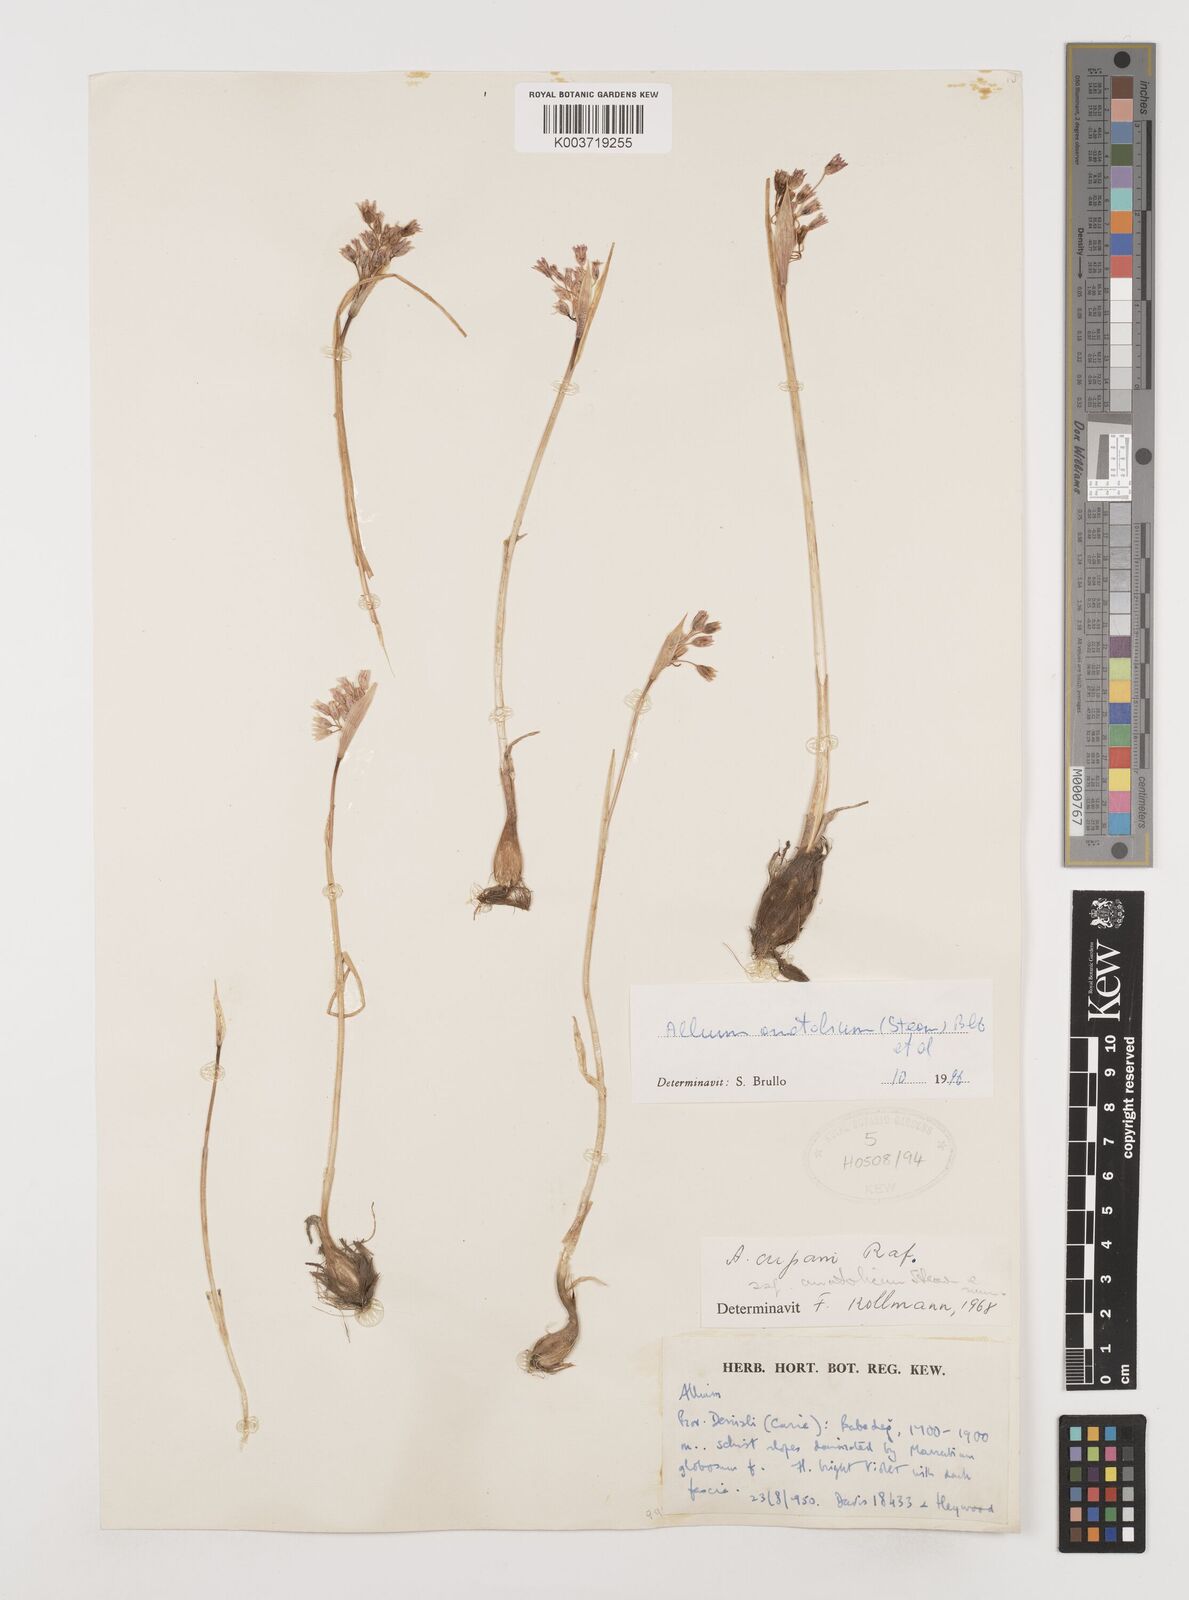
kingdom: Plantae
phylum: Tracheophyta
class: Liliopsida
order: Asparagales
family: Amaryllidaceae
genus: Allium
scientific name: Allium anatolicum
